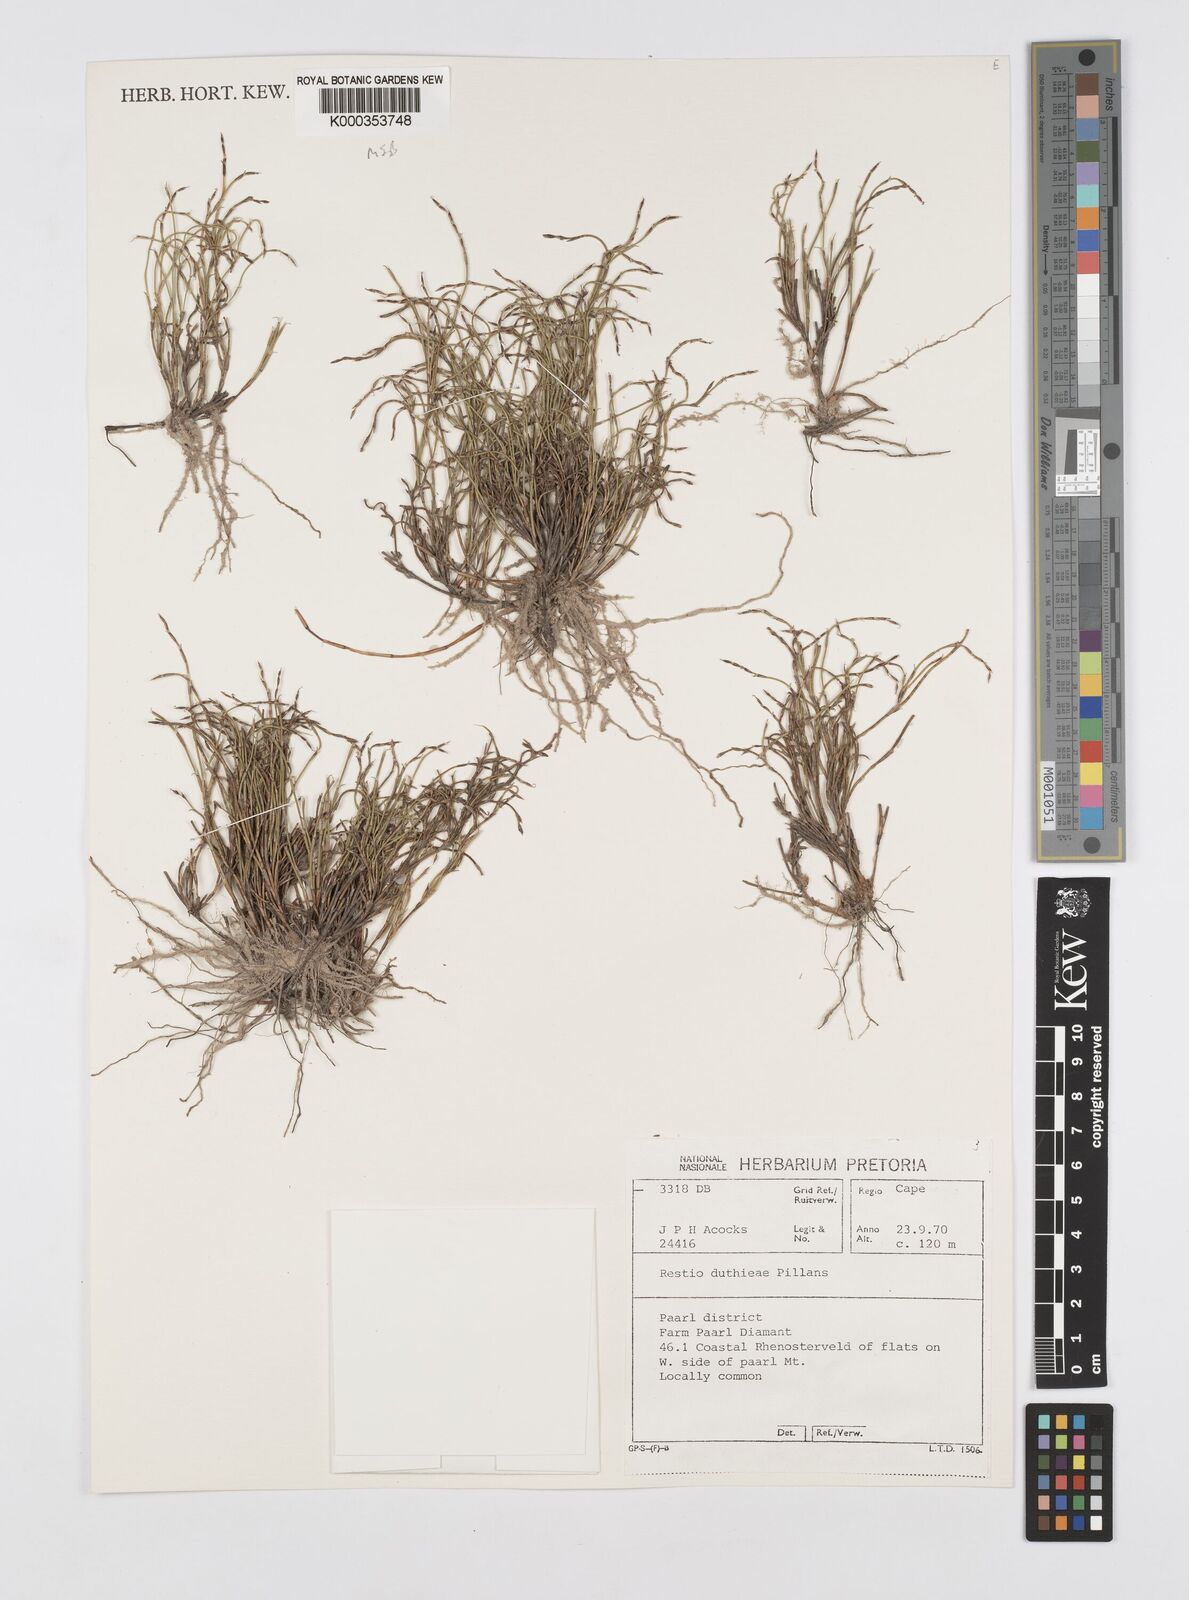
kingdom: Plantae
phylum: Tracheophyta
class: Liliopsida
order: Poales
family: Restionaceae
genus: Restio
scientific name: Restio duthieae
